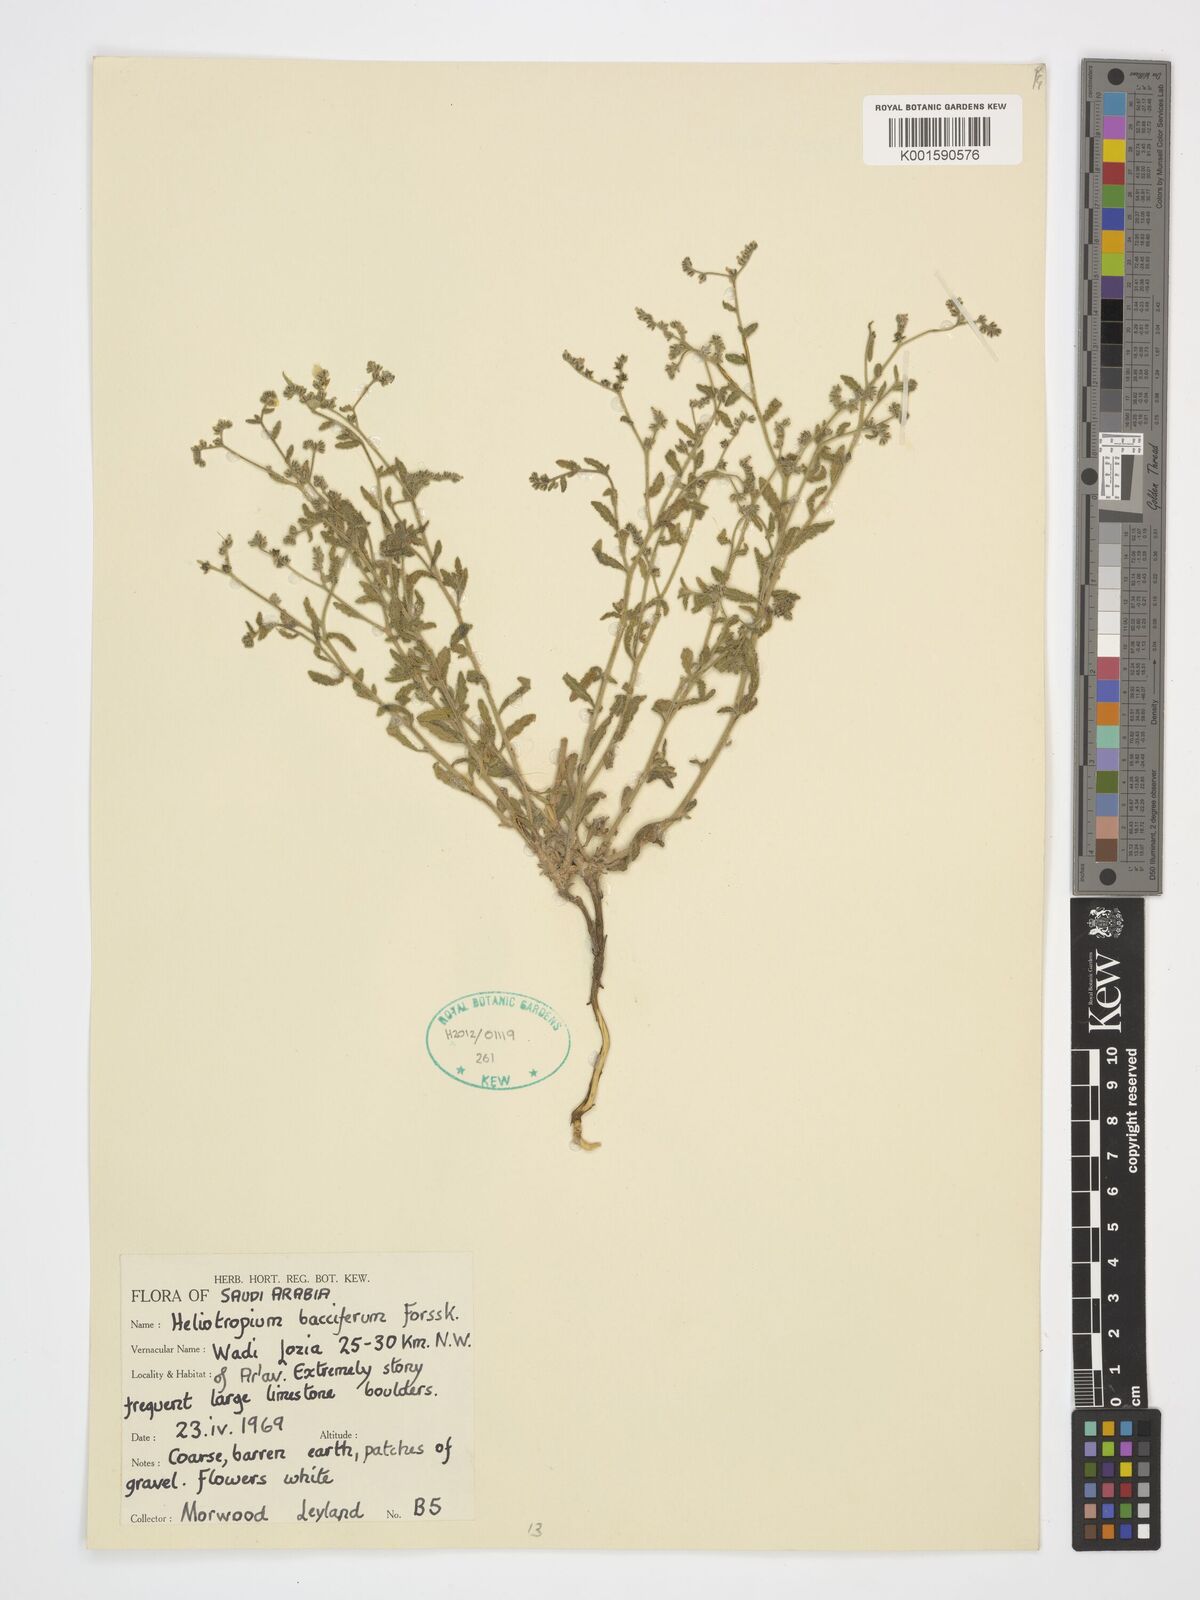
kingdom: Plantae
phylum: Tracheophyta
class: Magnoliopsida
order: Boraginales
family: Heliotropiaceae
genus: Heliotropium
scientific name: Heliotropium bacciferum
